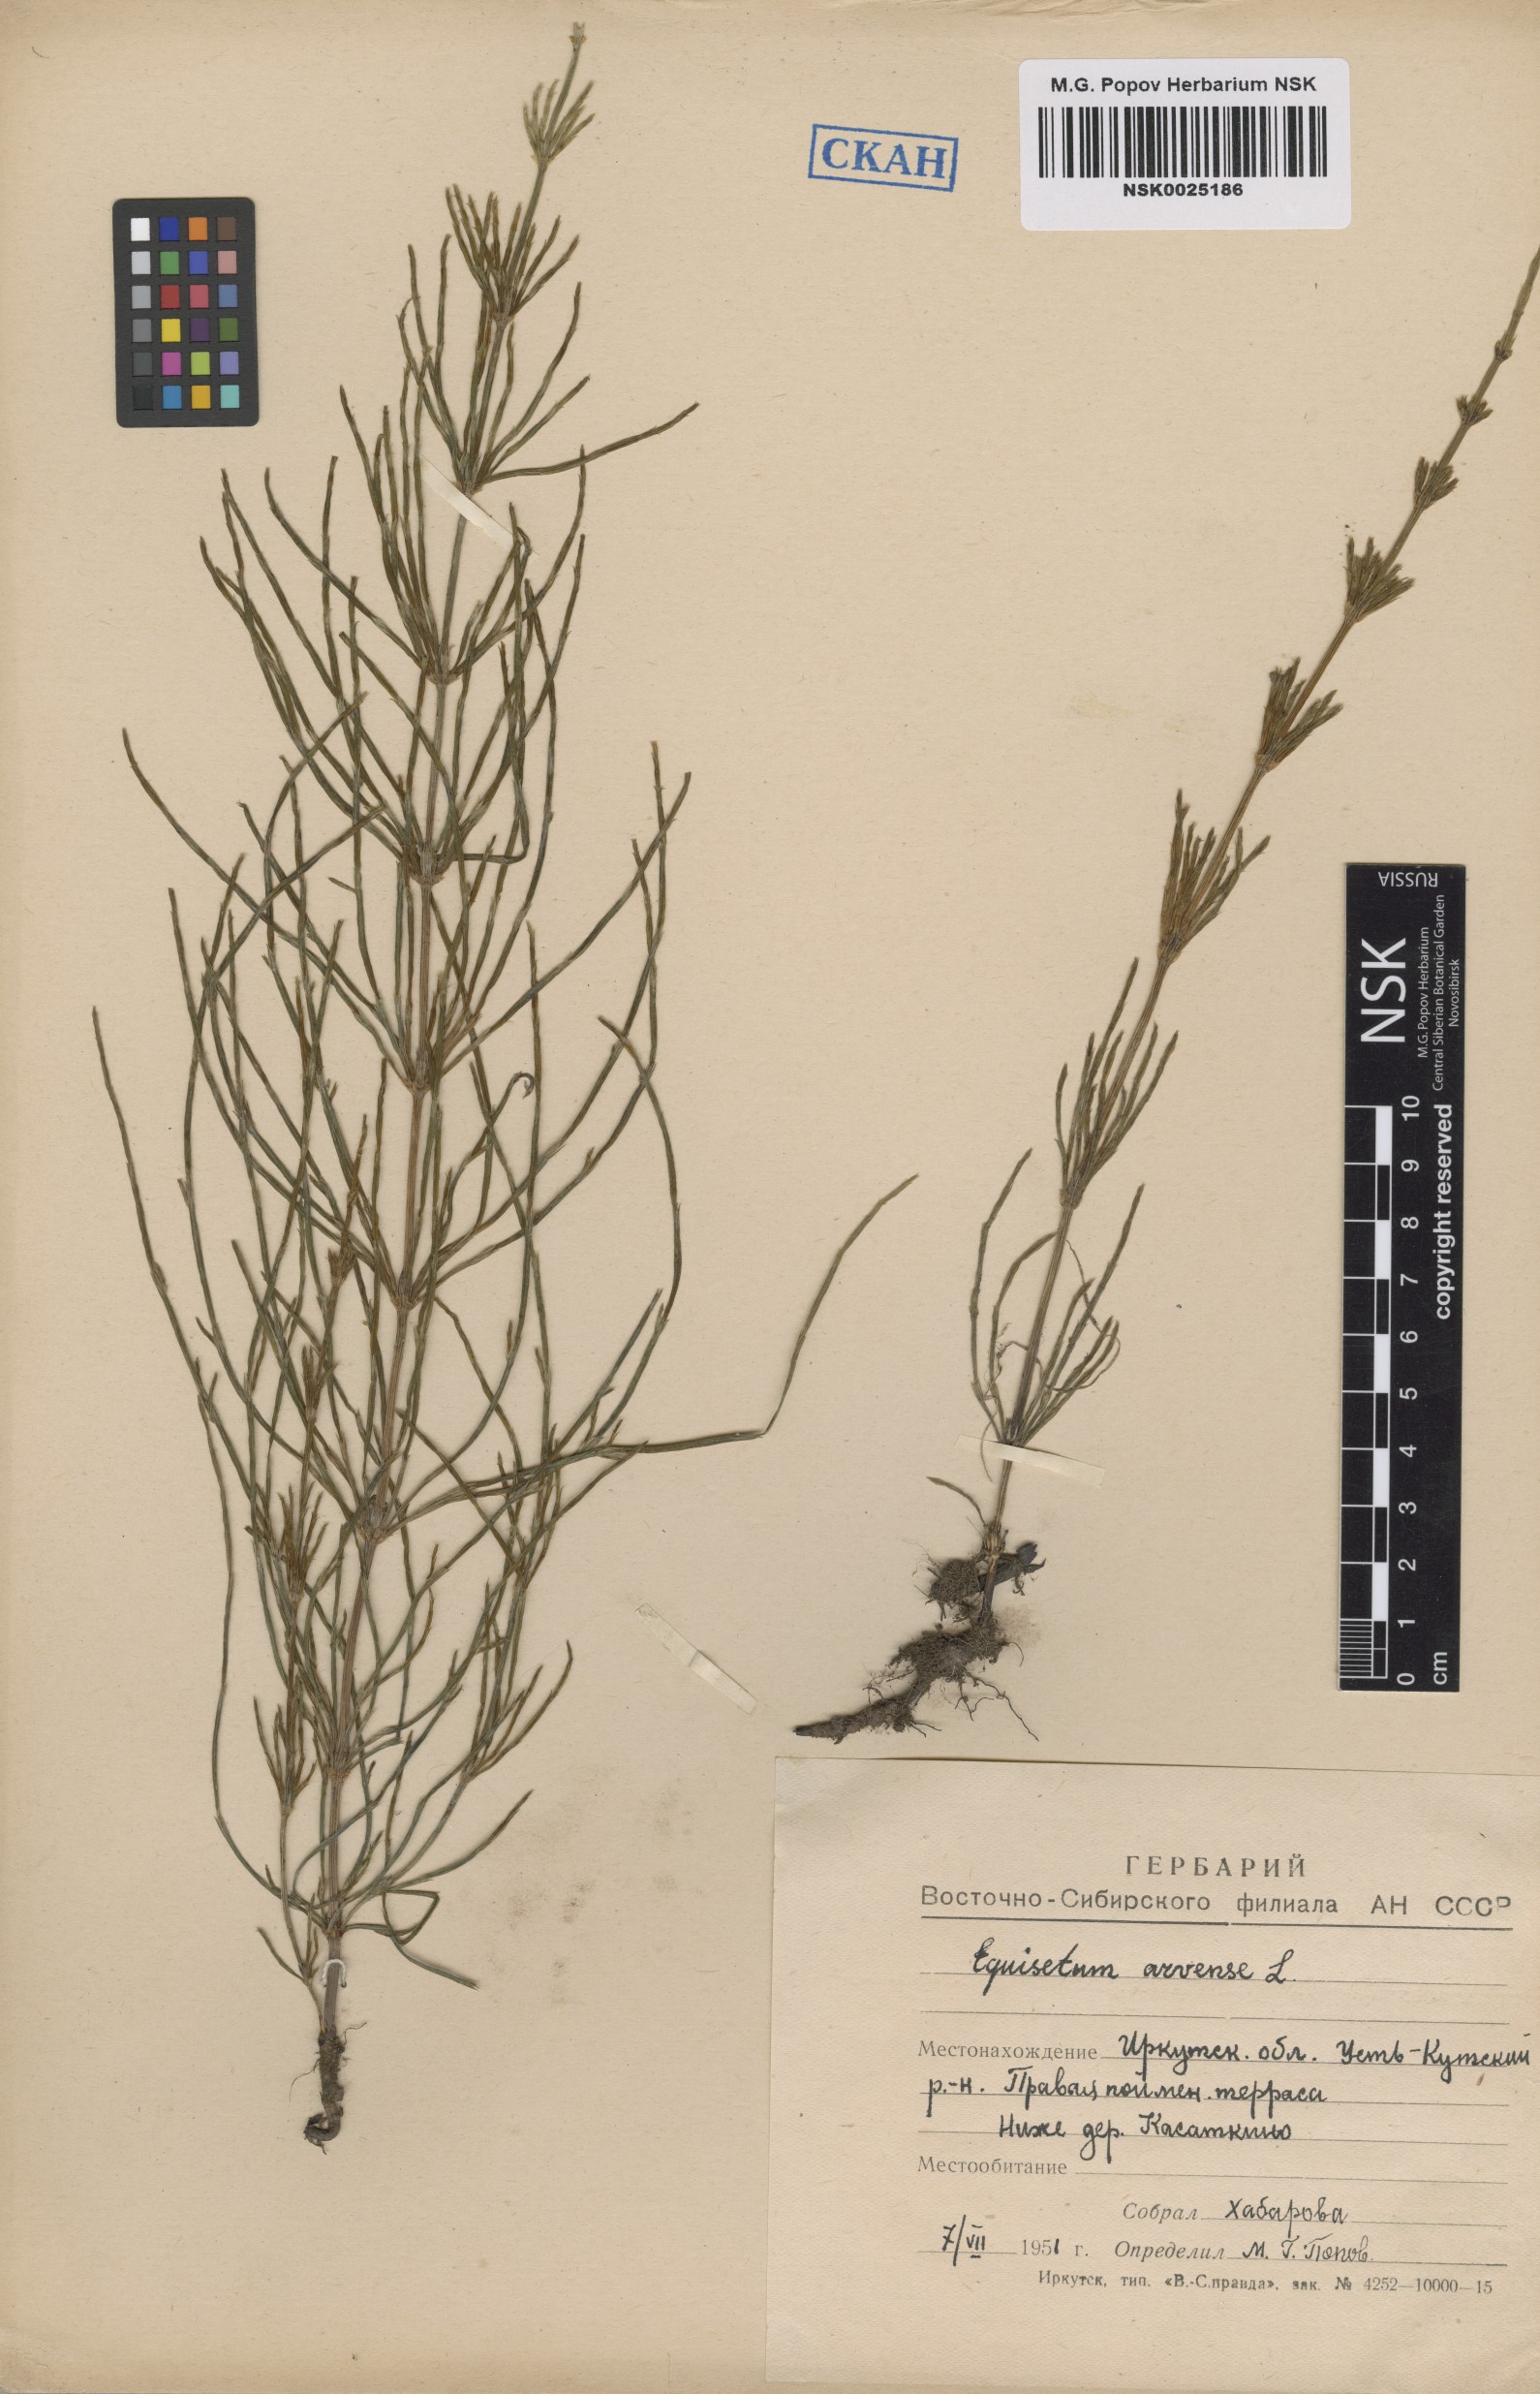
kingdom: Plantae
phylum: Tracheophyta
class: Polypodiopsida
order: Equisetales
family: Equisetaceae
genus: Equisetum
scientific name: Equisetum arvense
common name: Field horsetail
